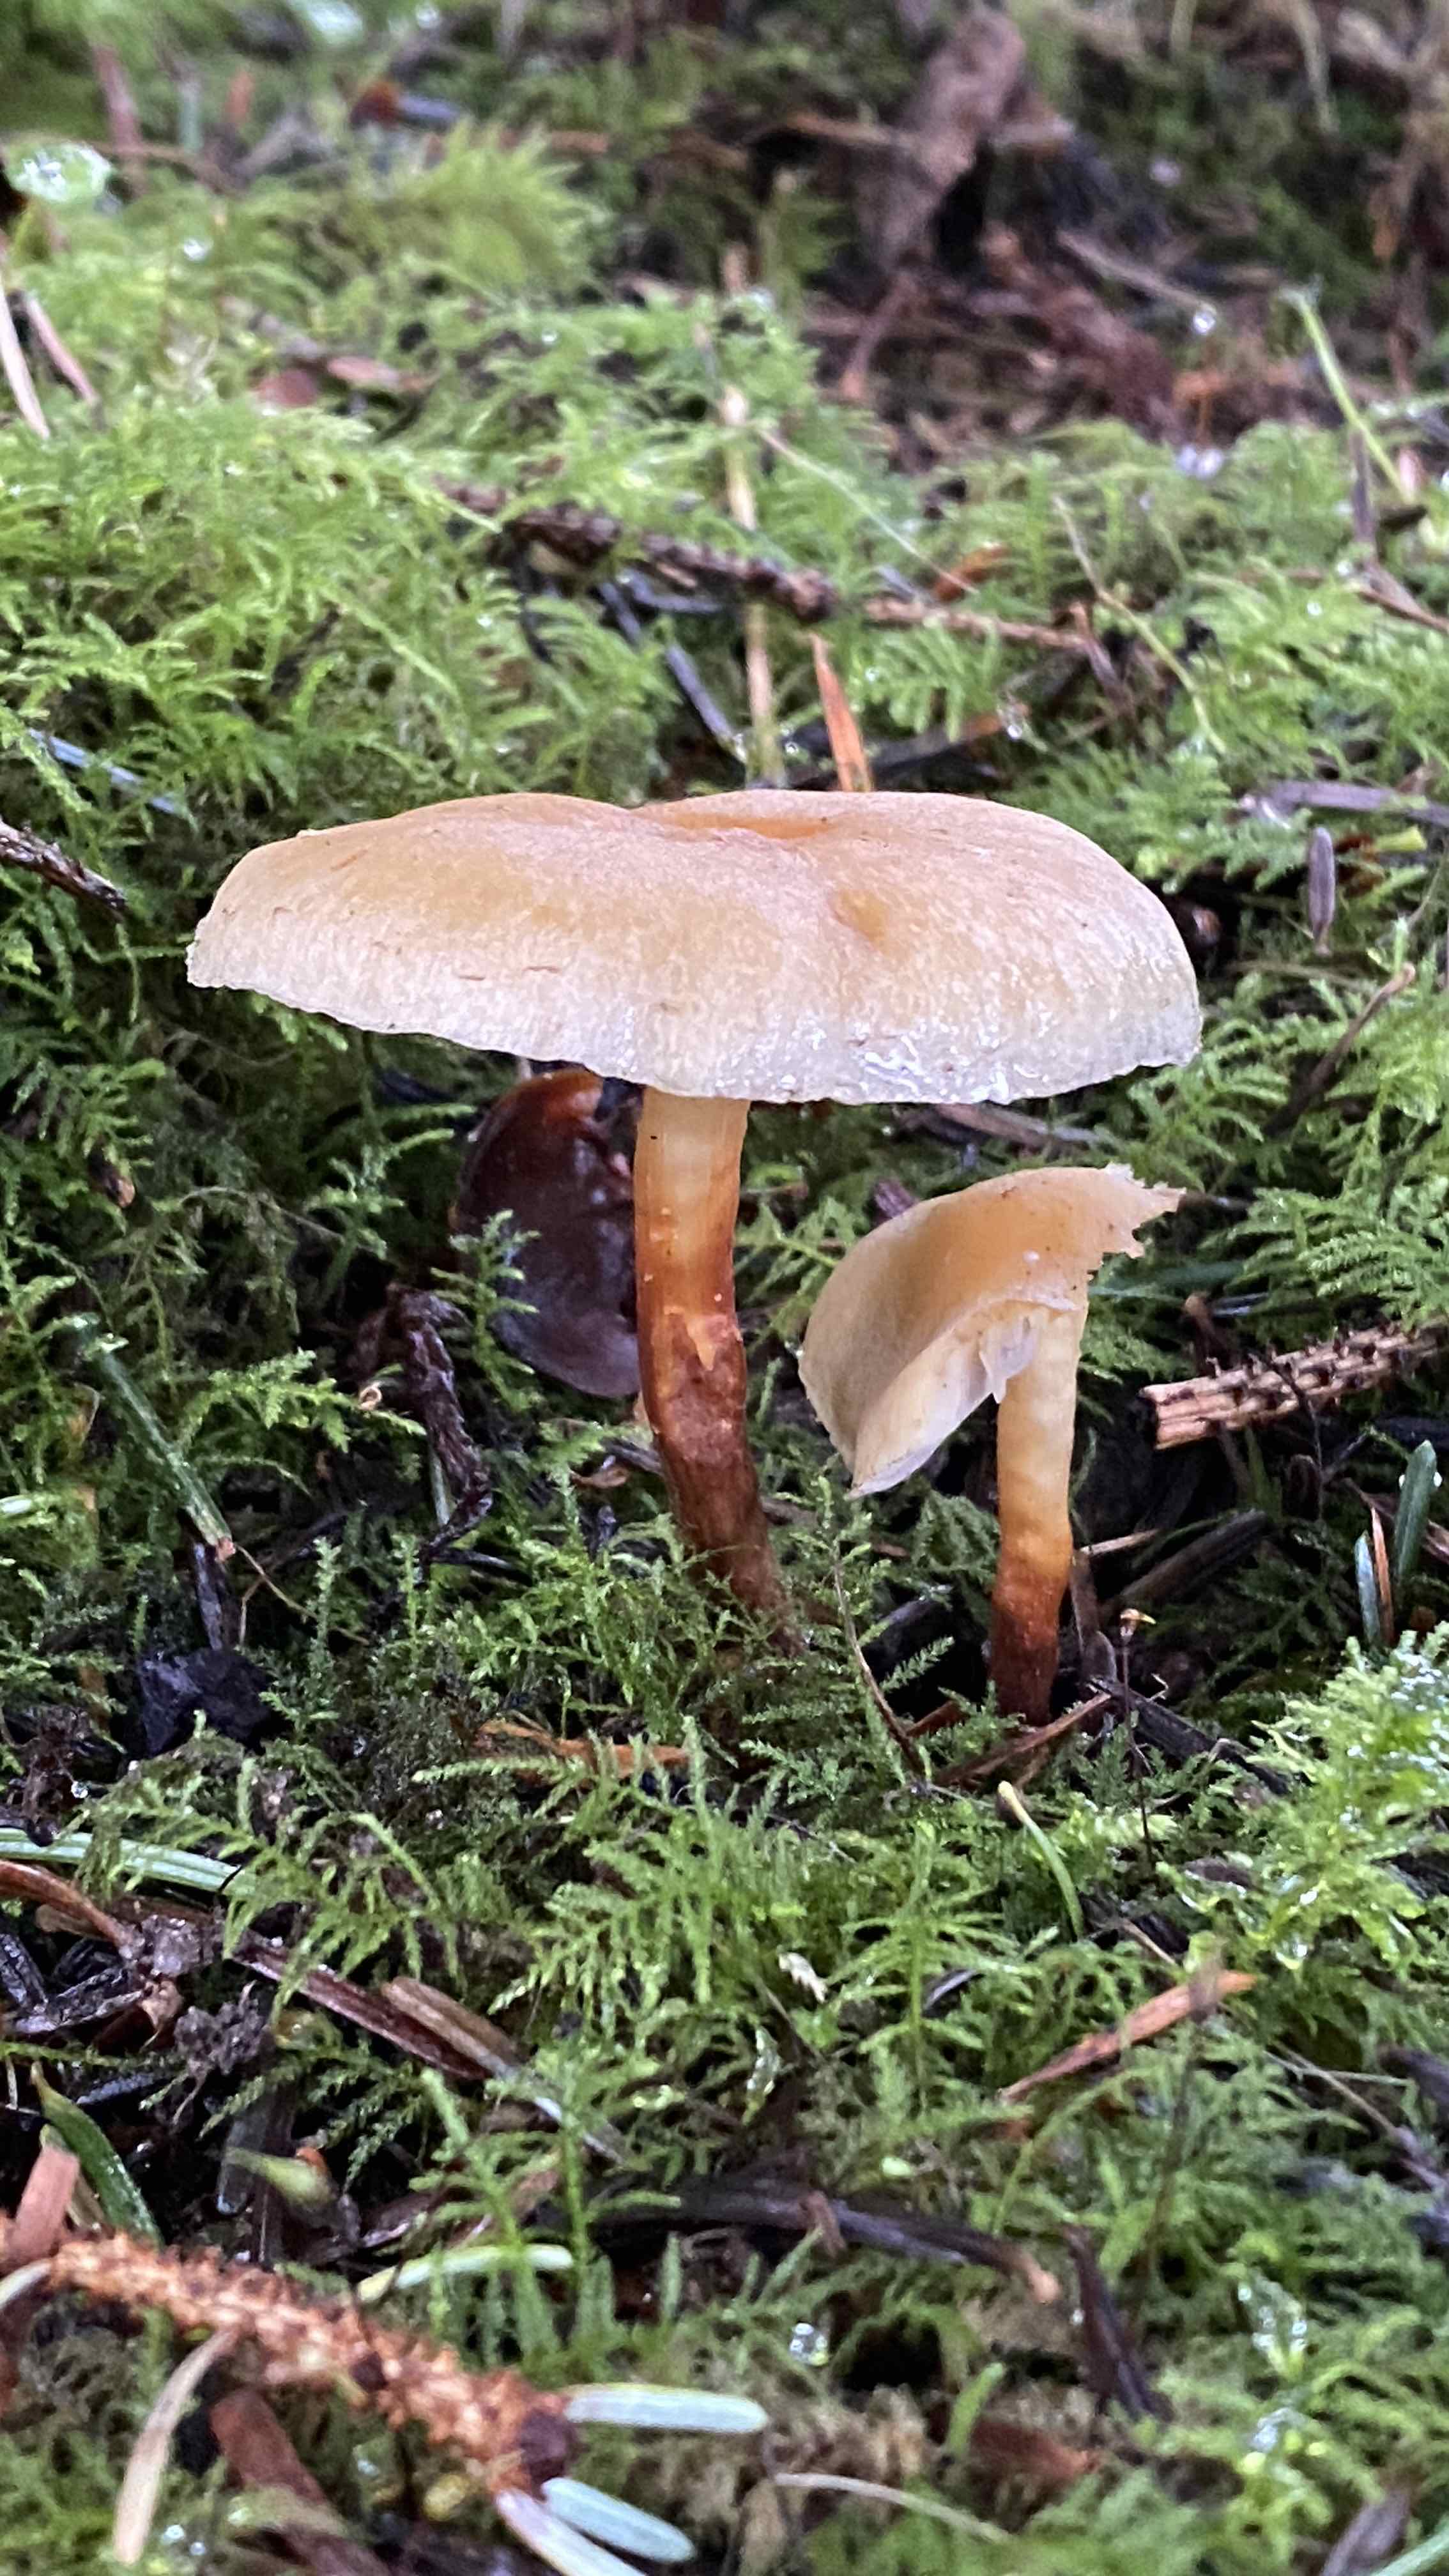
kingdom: Fungi
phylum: Basidiomycota
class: Agaricomycetes
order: Agaricales
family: Strophariaceae
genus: Hypholoma
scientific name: Hypholoma capnoides
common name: gran-svovlhat
